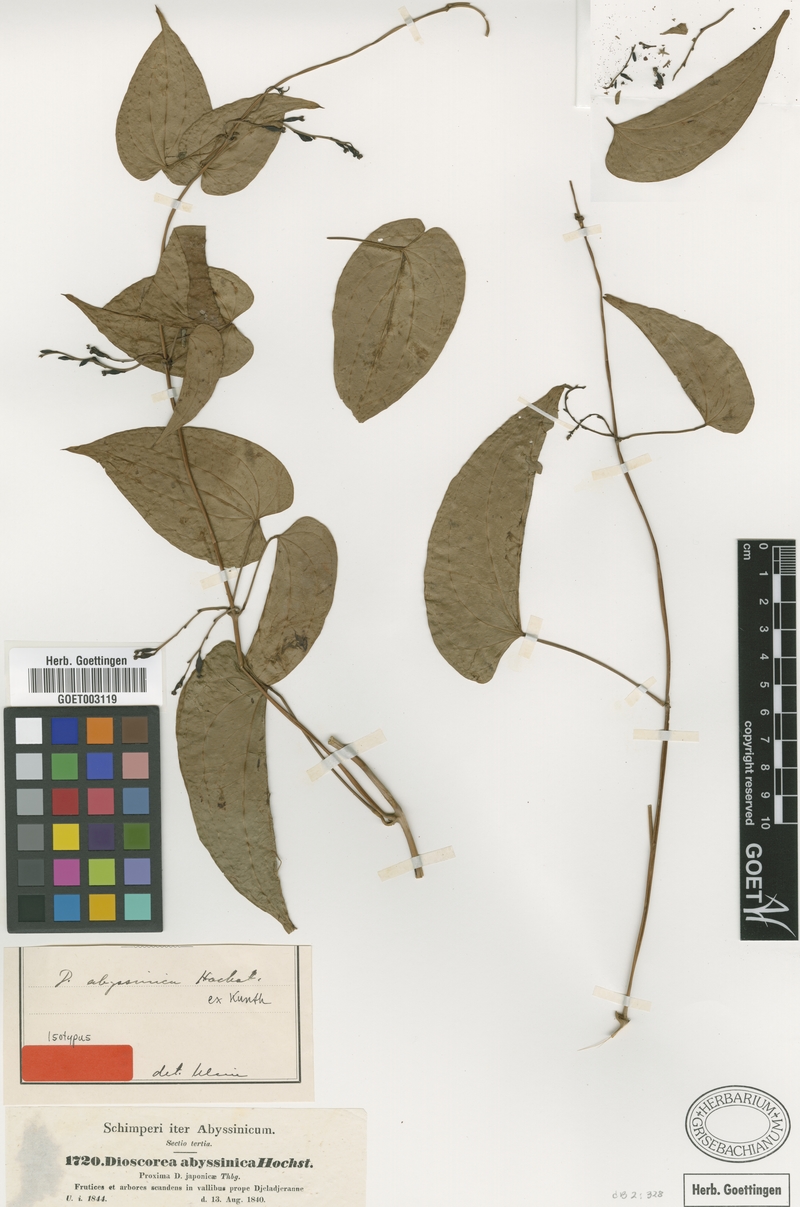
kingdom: Plantae
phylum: Tracheophyta
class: Liliopsida
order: Dioscoreales
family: Dioscoreaceae
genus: Dioscorea
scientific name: Dioscorea abyssinica
